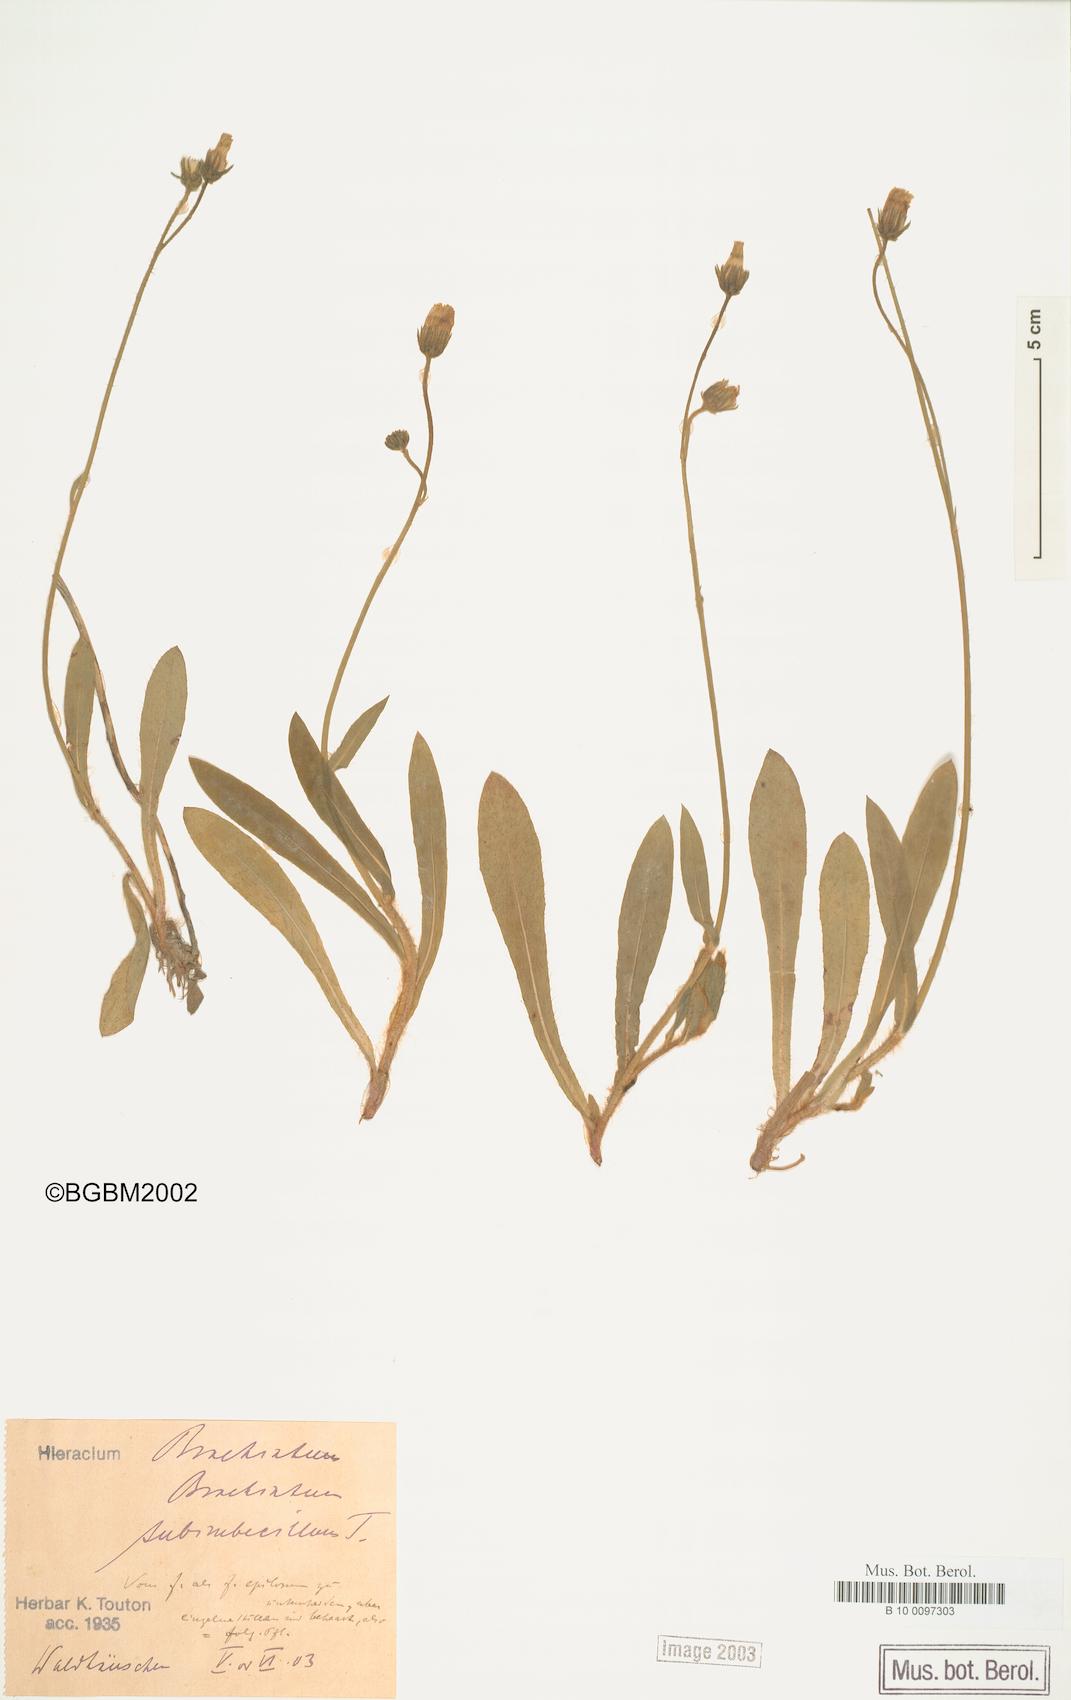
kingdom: Plantae
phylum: Tracheophyta
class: Magnoliopsida
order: Asterales
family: Asteraceae
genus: Pilosella
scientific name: Pilosella acutifolia
